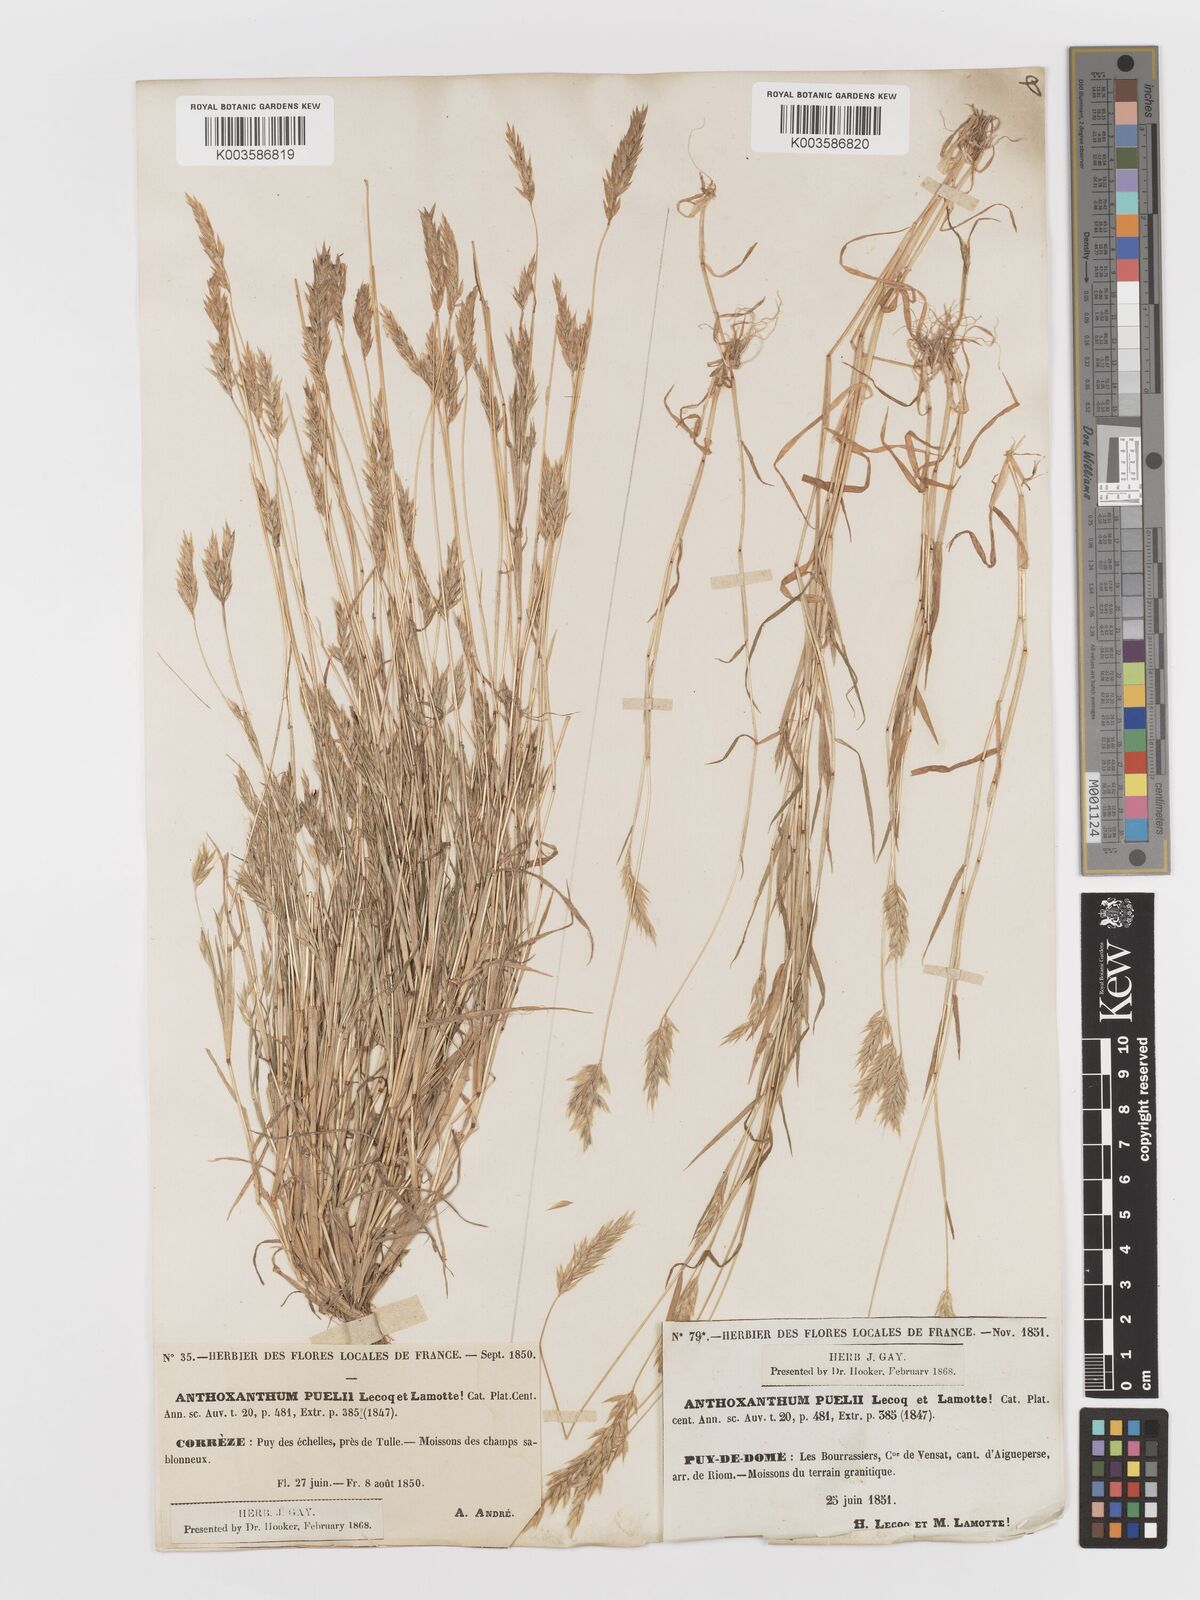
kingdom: Plantae
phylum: Tracheophyta
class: Liliopsida
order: Poales
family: Poaceae
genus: Anthoxanthum
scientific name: Anthoxanthum
